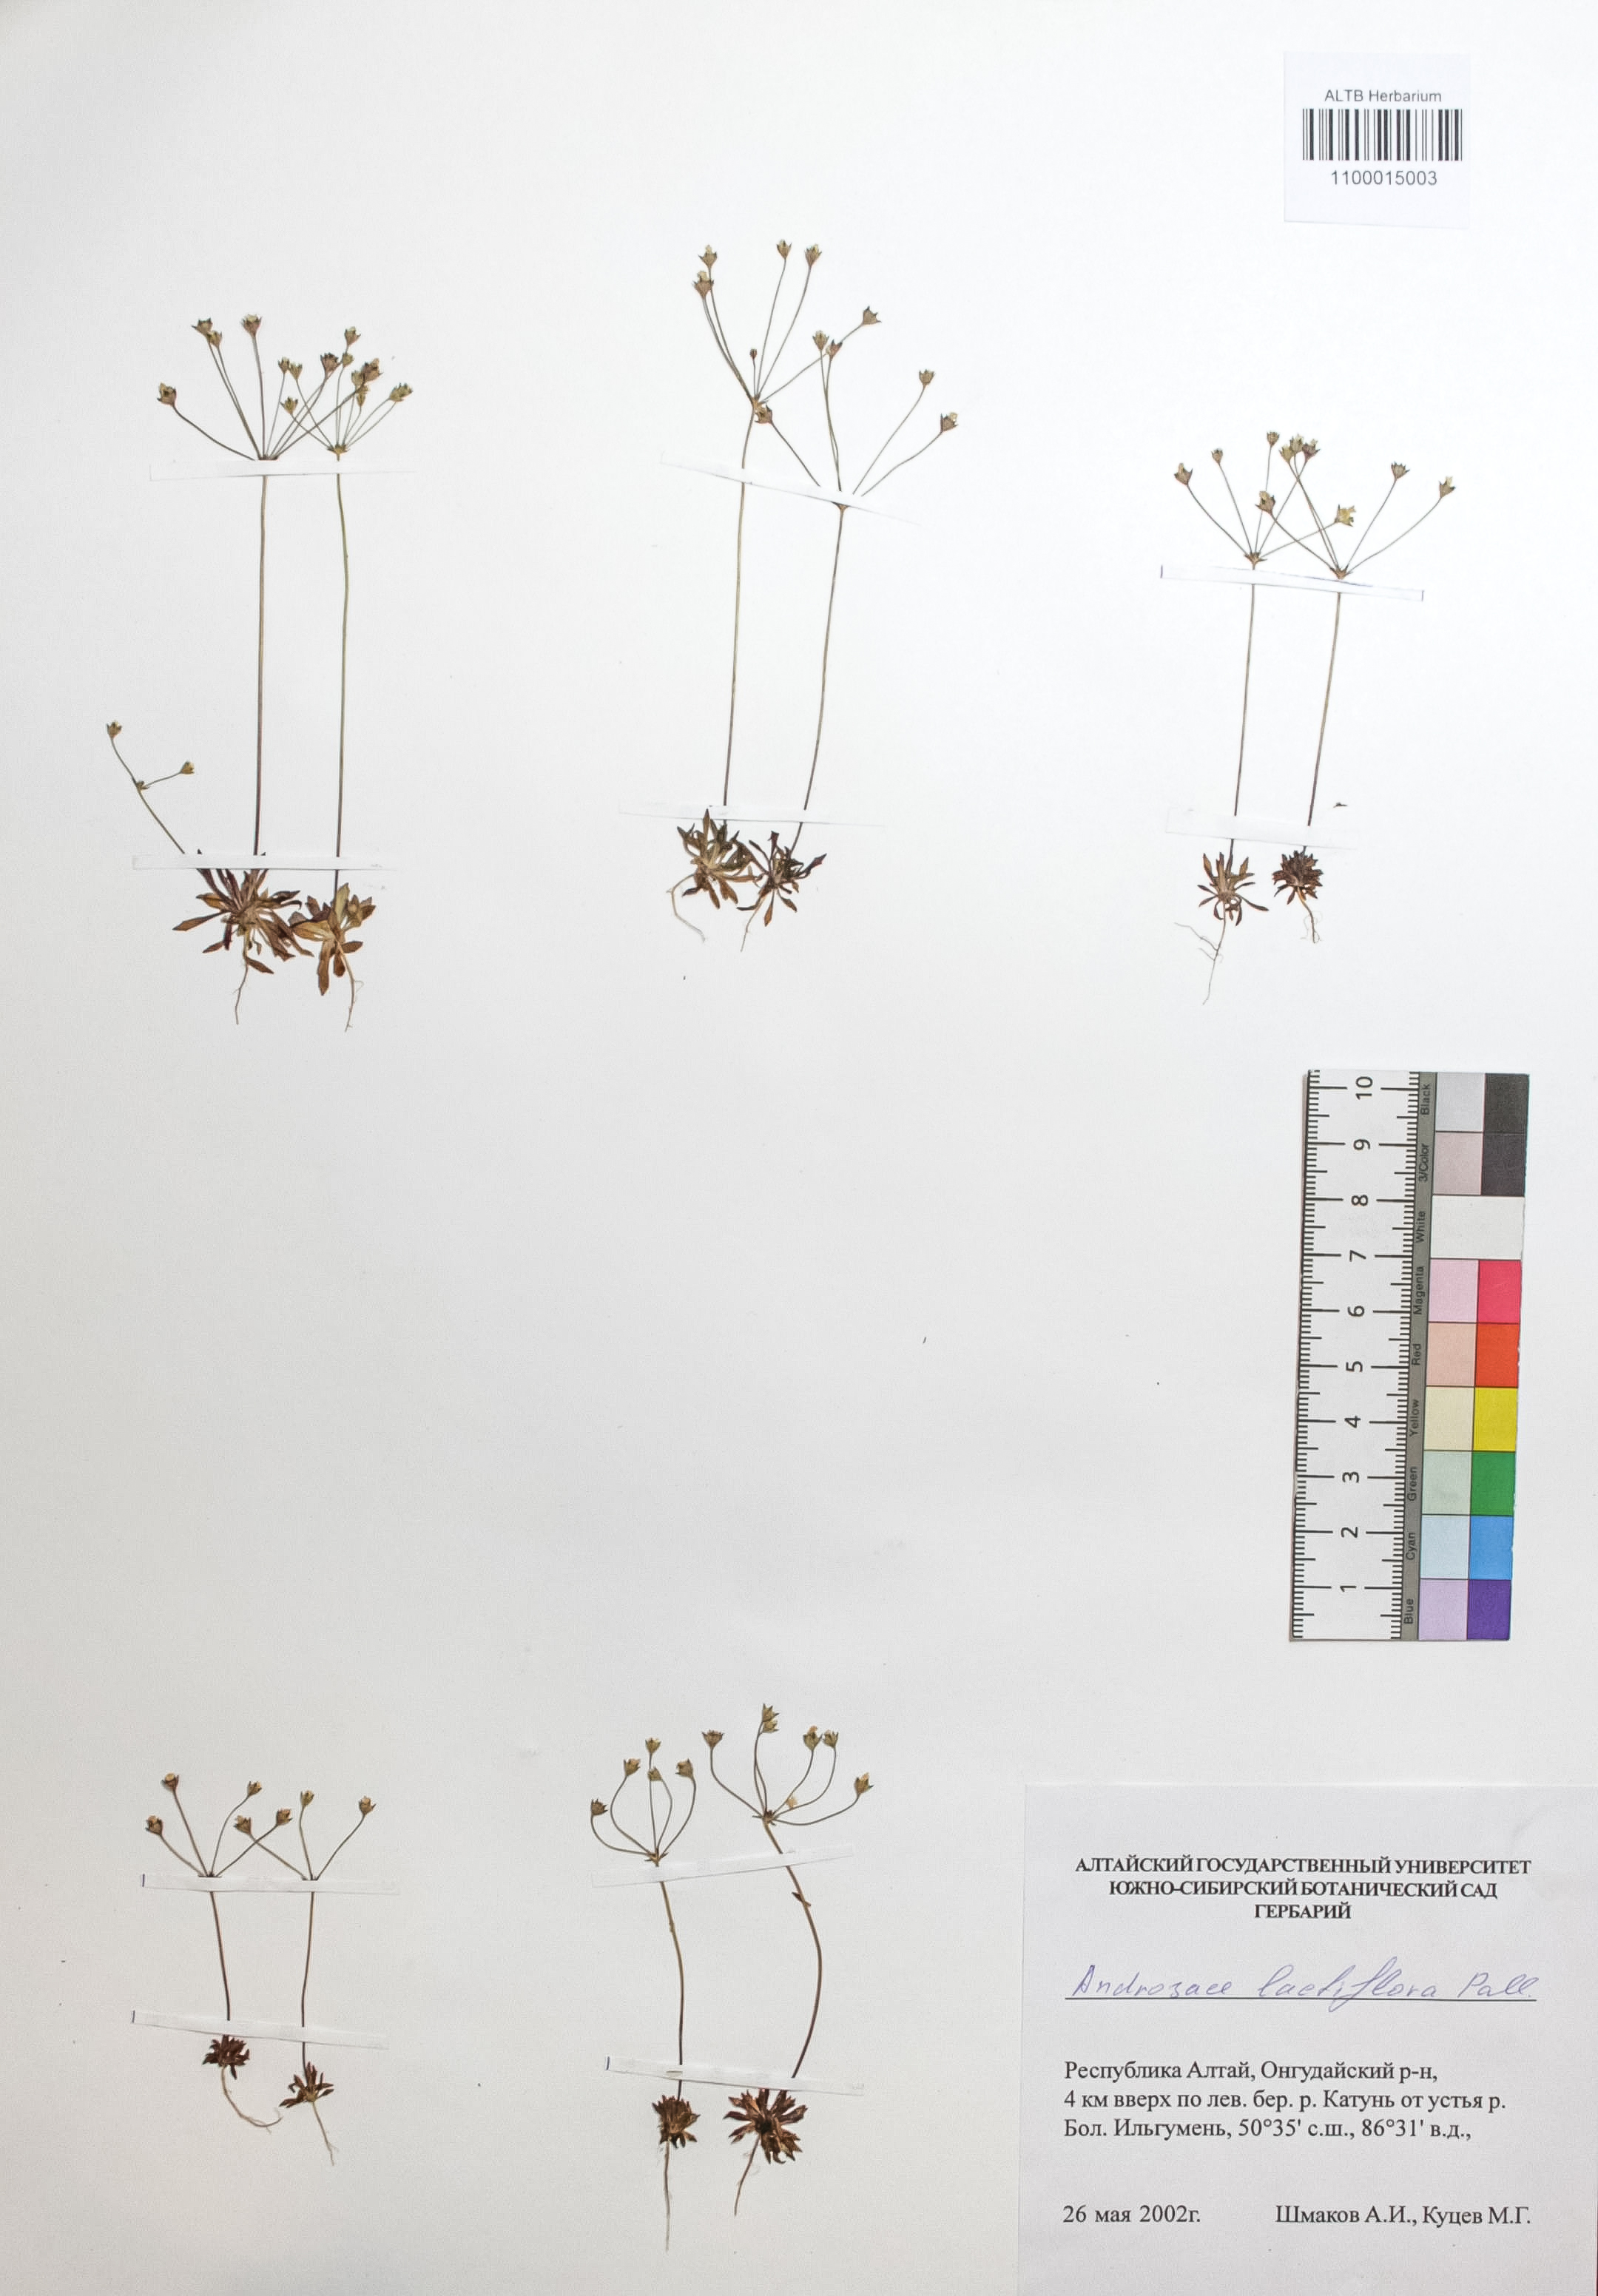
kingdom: Plantae
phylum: Tracheophyta
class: Magnoliopsida
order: Ericales
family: Primulaceae
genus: Androsace
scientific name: Androsace lactiflora
